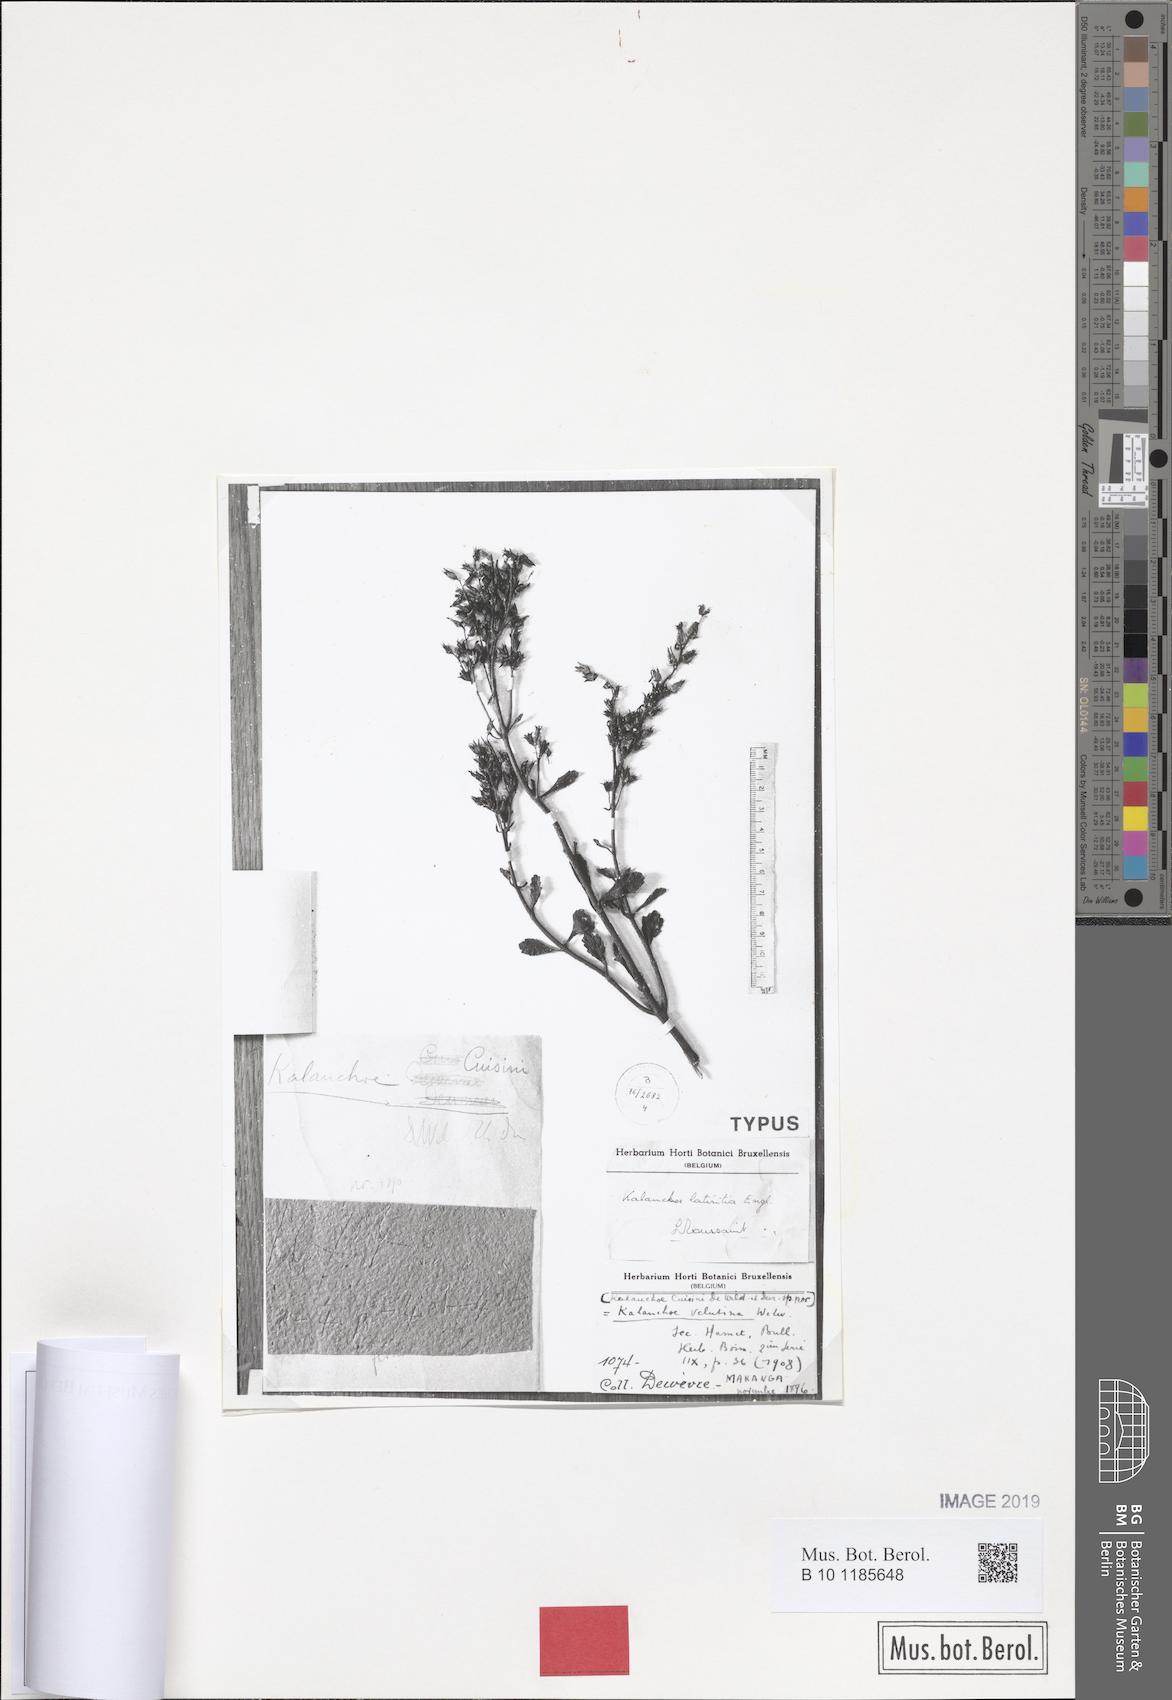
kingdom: Plantae
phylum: Tracheophyta
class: Magnoliopsida
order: Saxifragales
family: Crassulaceae
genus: Kalanchoe
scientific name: Kalanchoe lateritia
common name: Kalanchoe
